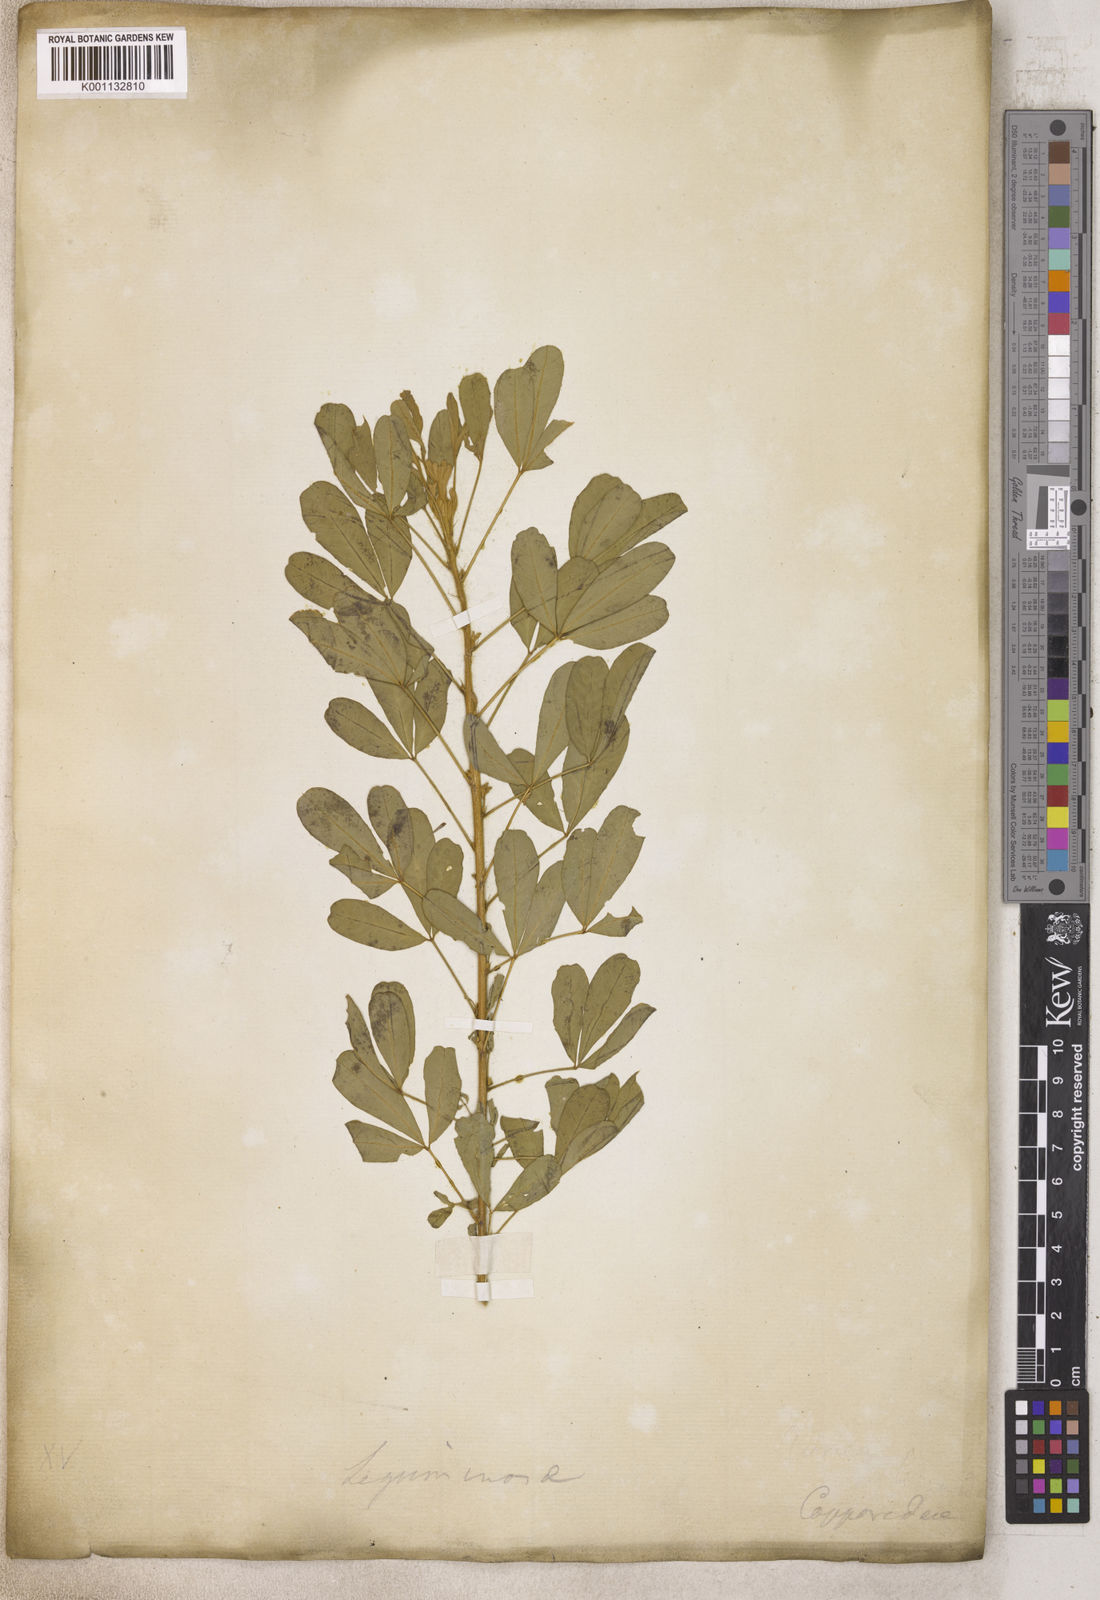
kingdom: Plantae
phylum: Tracheophyta
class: Magnoliopsida
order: Fabales
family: Fabaceae
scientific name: Fabaceae
